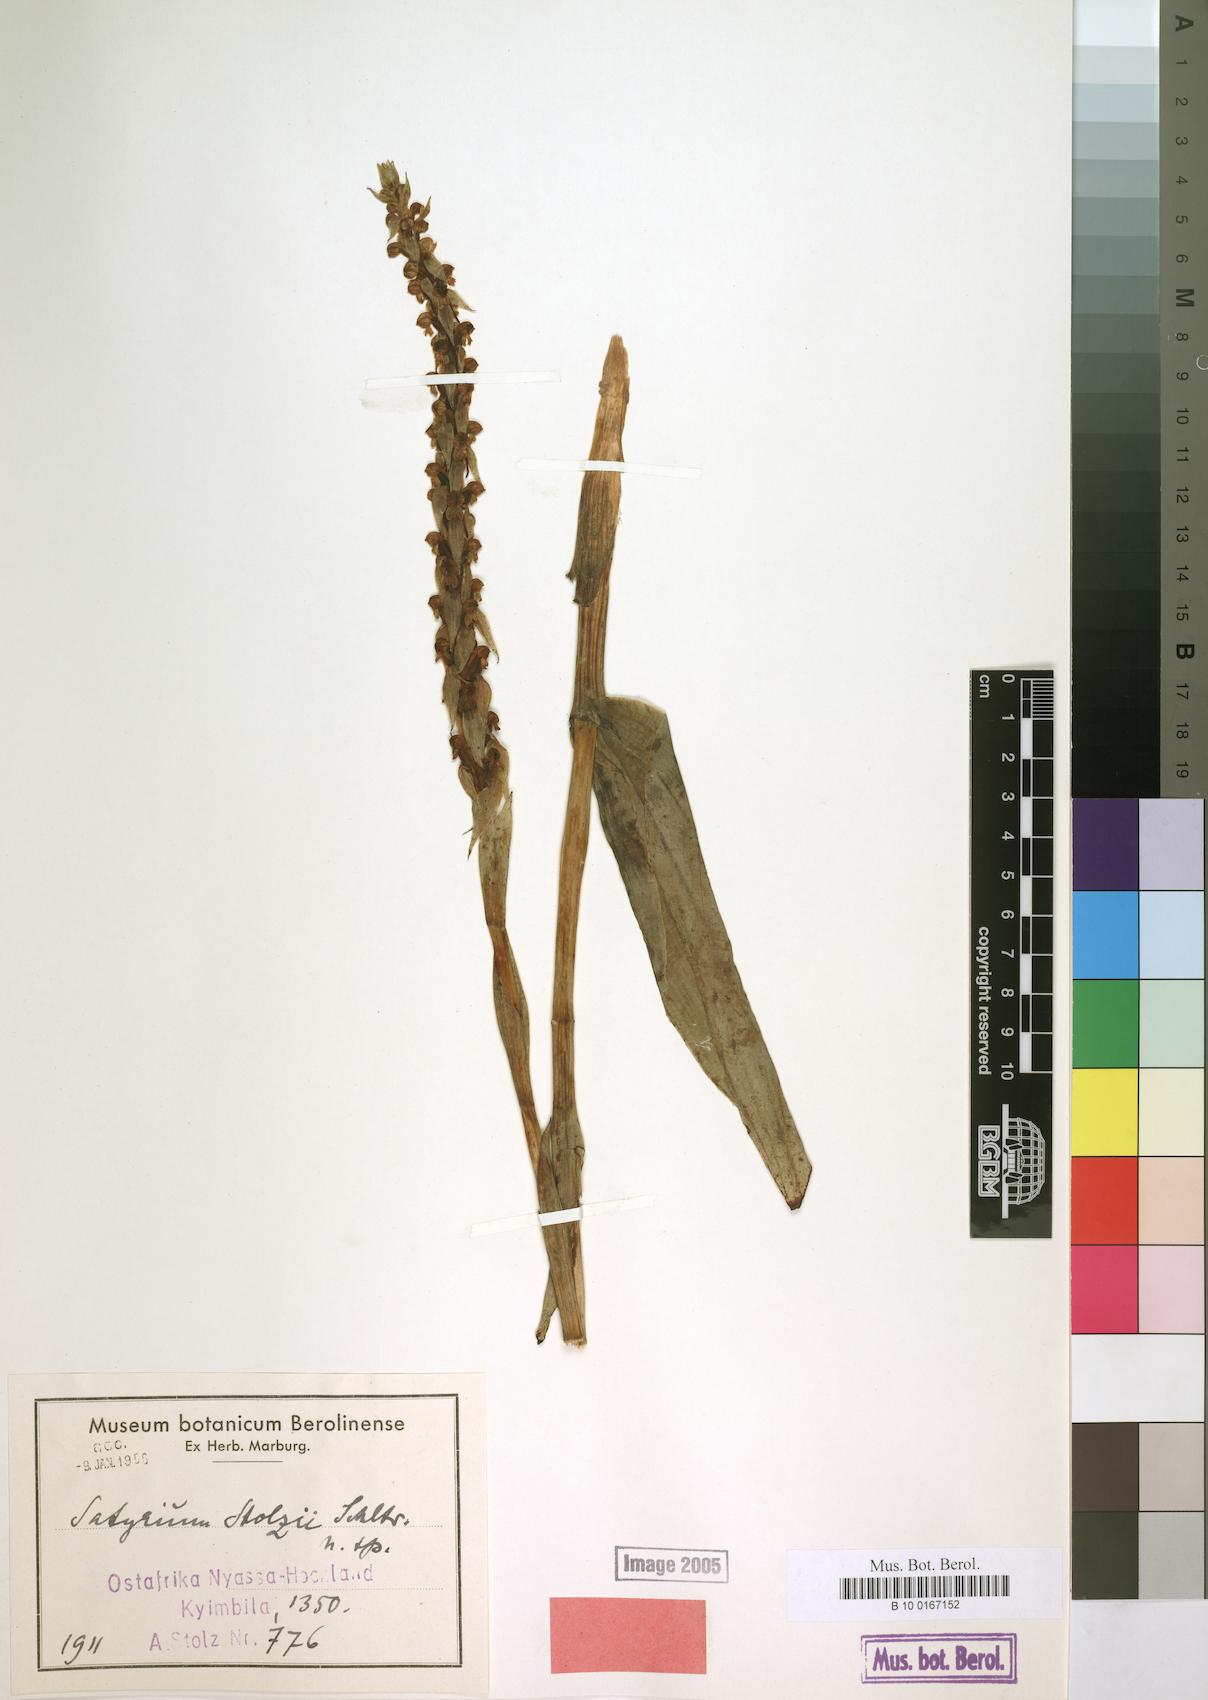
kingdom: Plantae
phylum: Tracheophyta
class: Liliopsida
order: Asparagales
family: Orchidaceae
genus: Satyrium
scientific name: Satyrium coriophoroides
